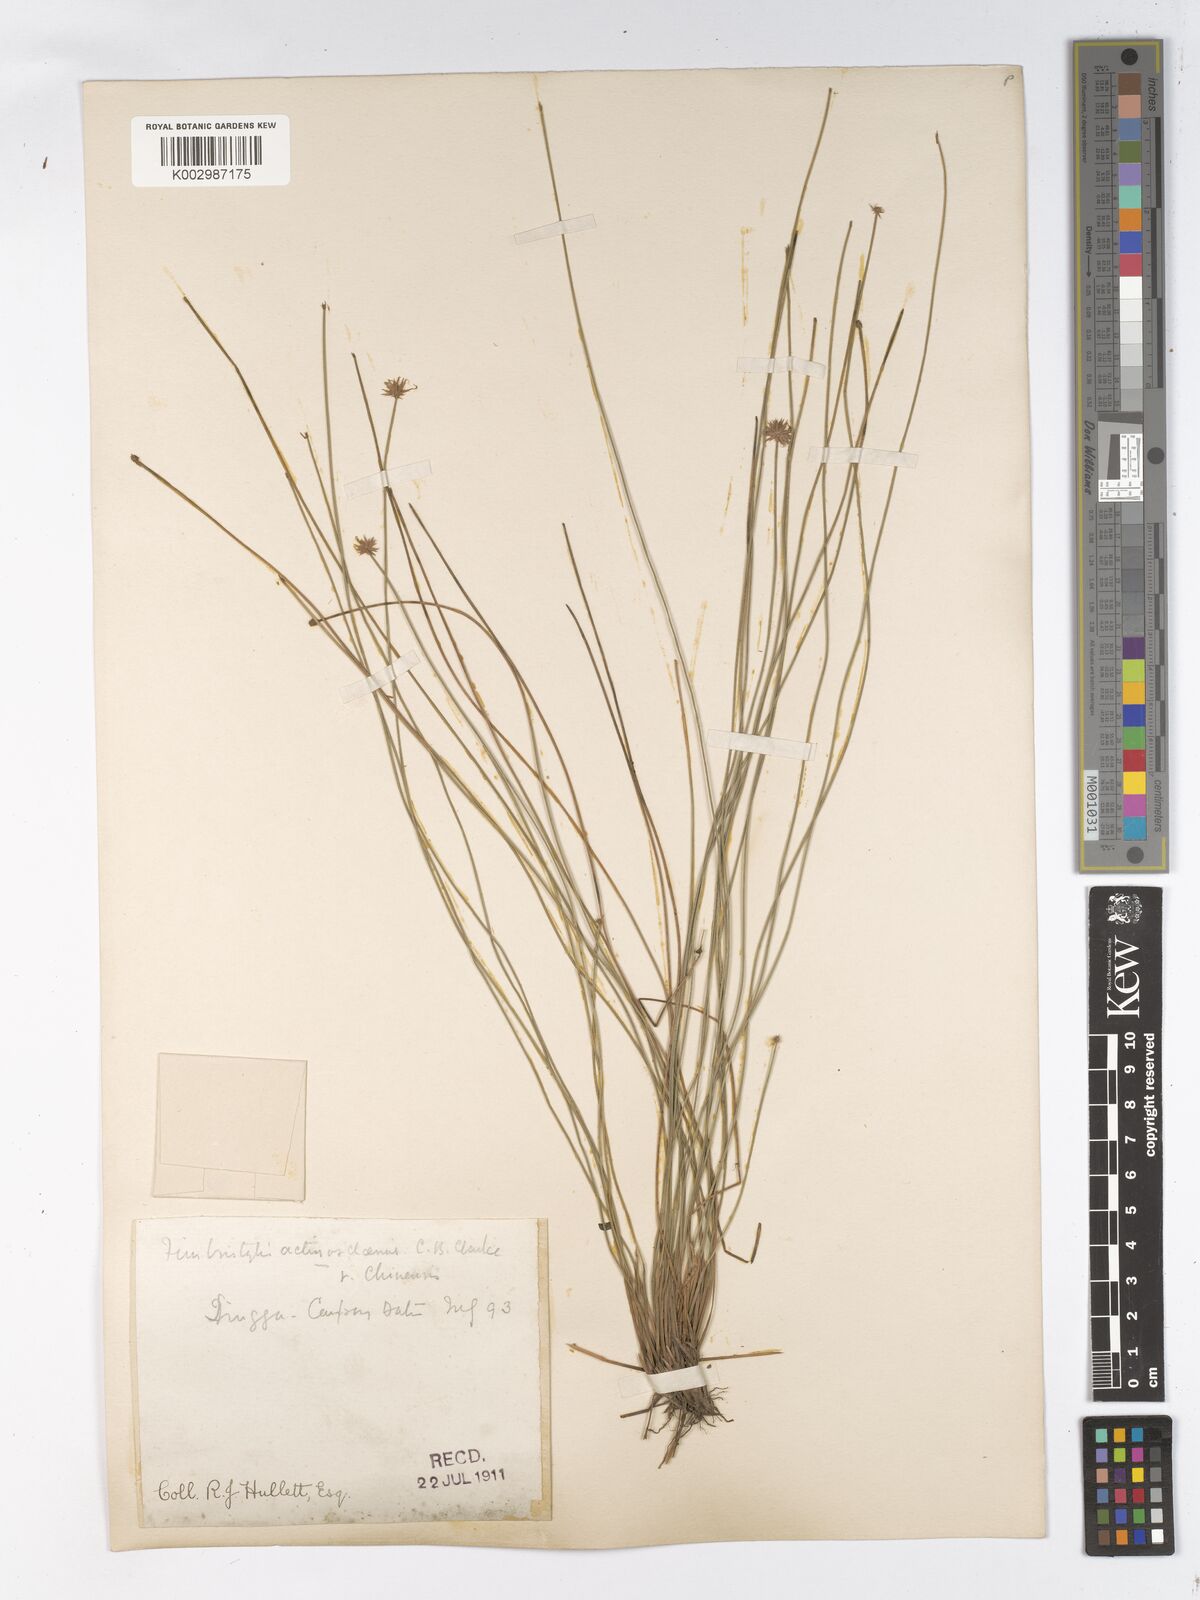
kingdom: Plantae
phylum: Tracheophyta
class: Liliopsida
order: Poales
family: Cyperaceae
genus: Actinoschoenus
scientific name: Actinoschoenus aphyllus
